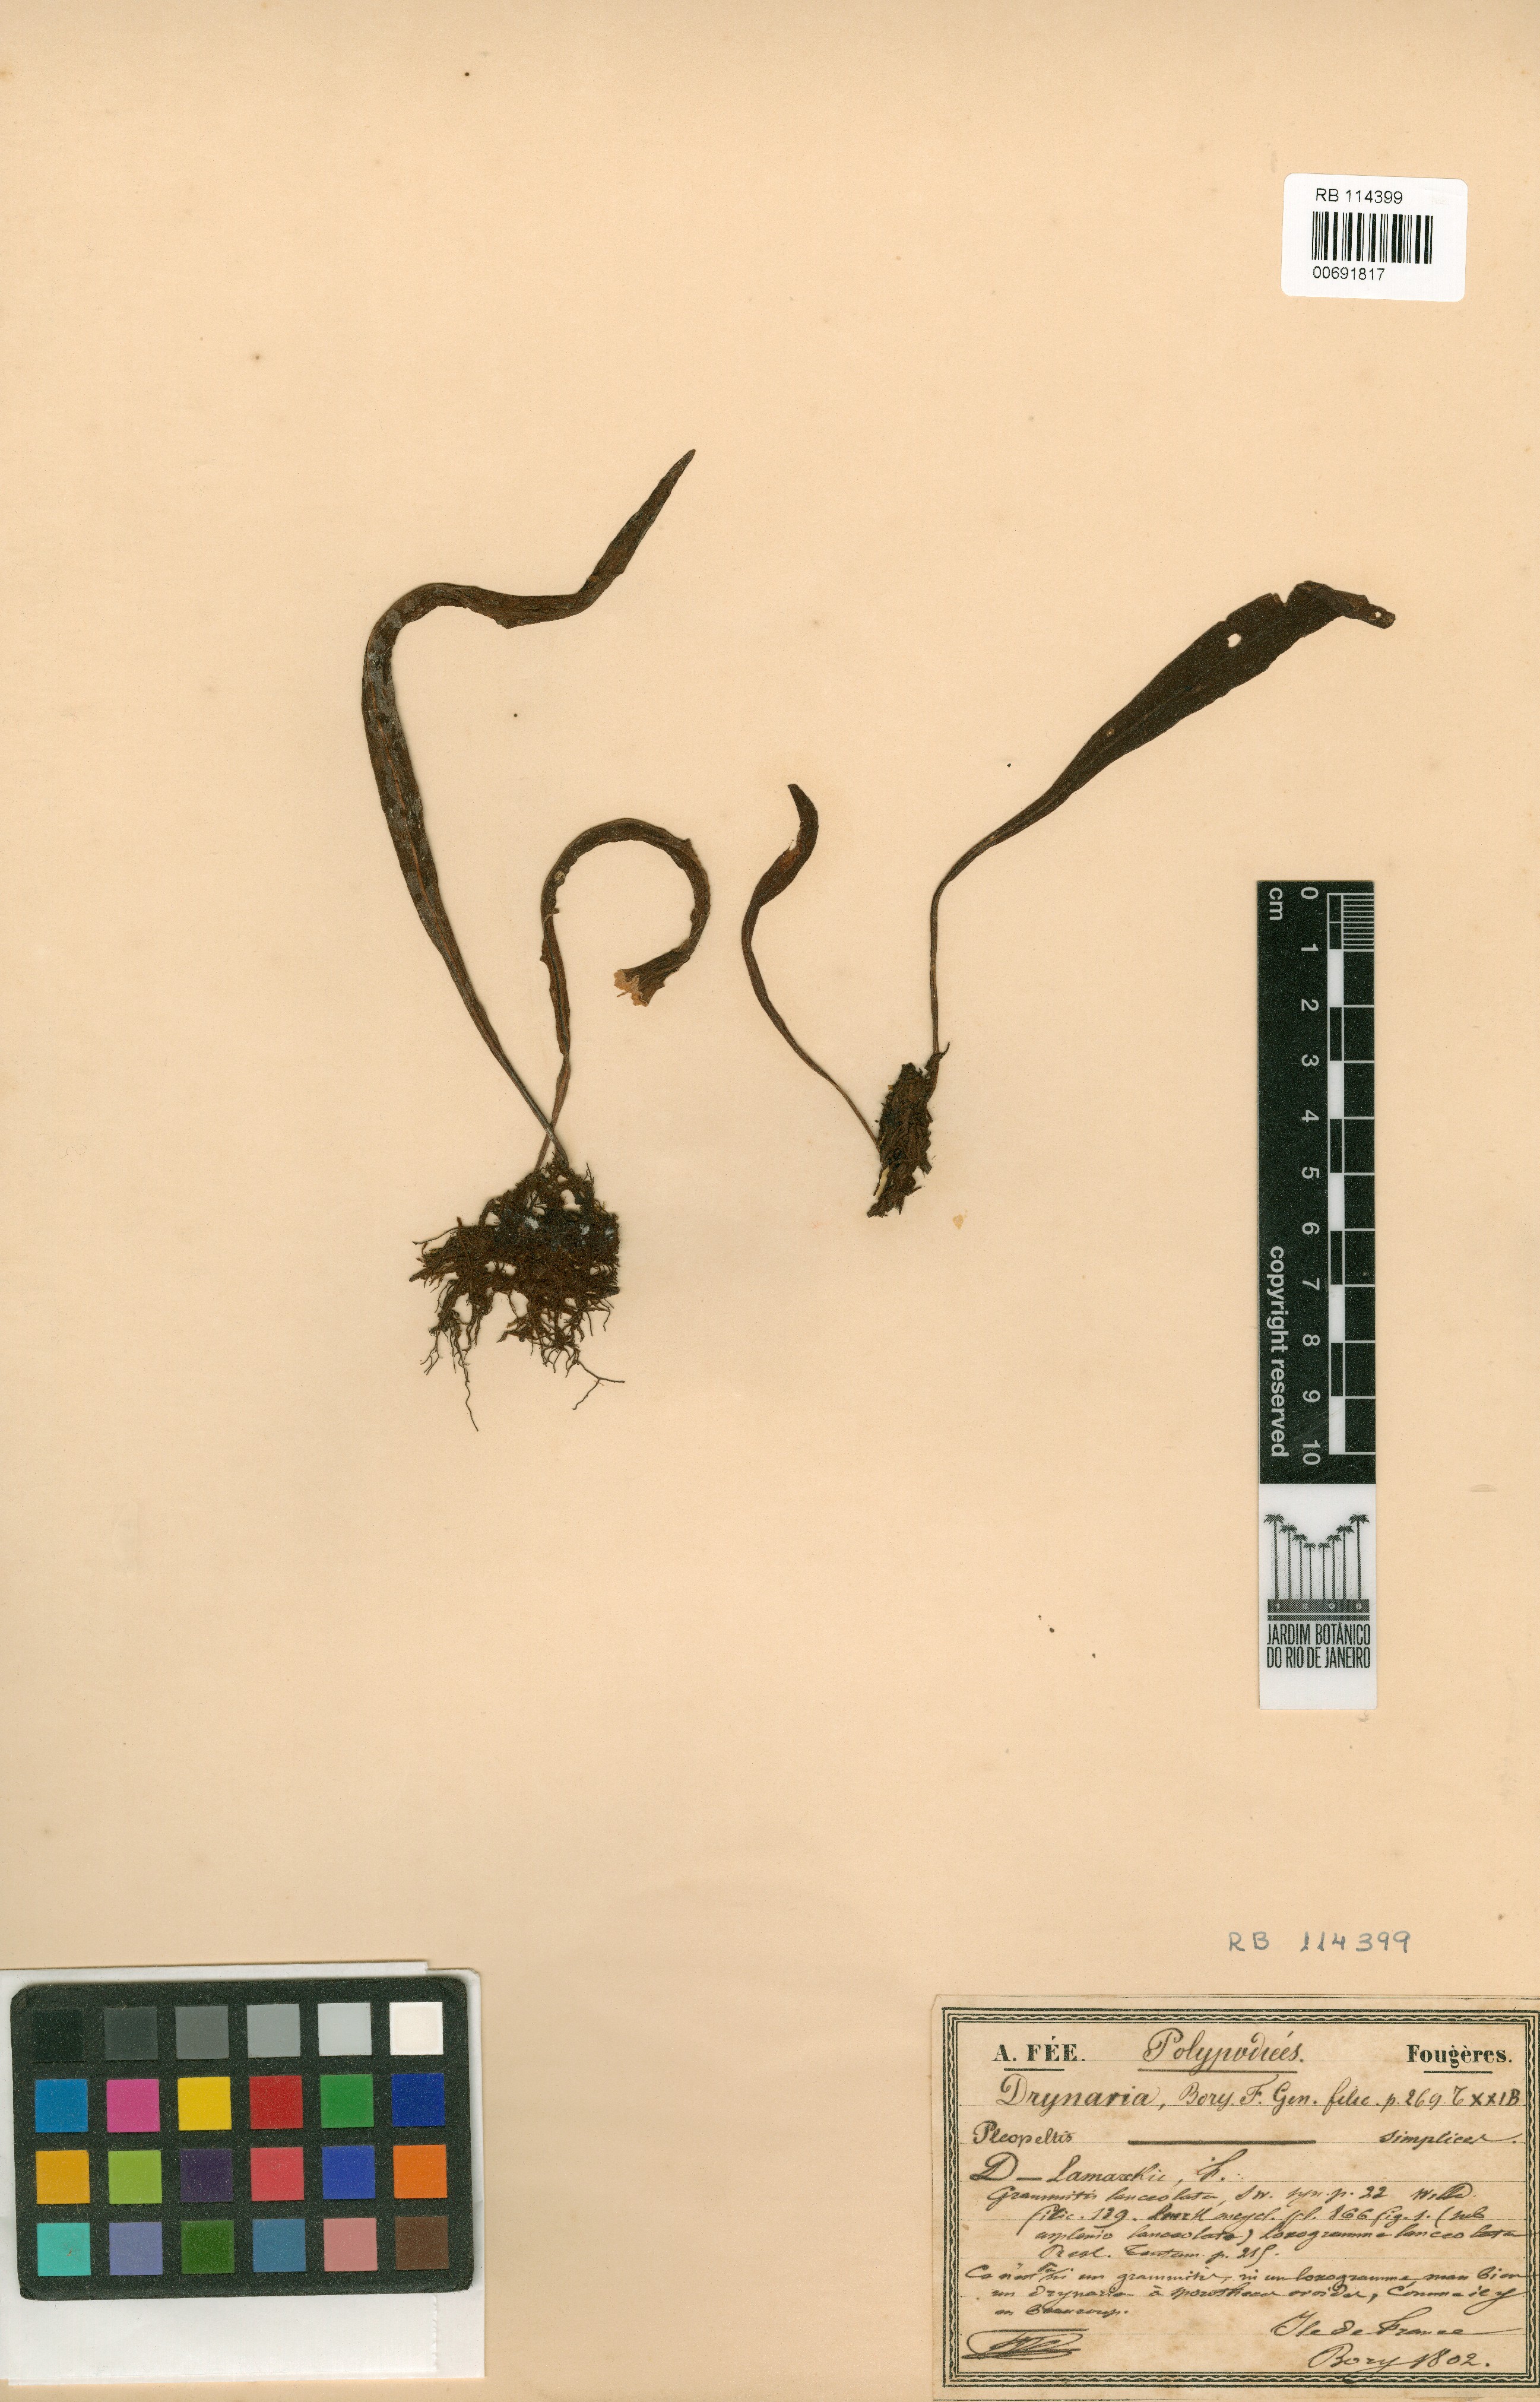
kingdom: Plantae
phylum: Tracheophyta
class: Polypodiopsida
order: Polypodiales
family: Polypodiaceae
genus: Drynaria
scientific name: Drynaria
